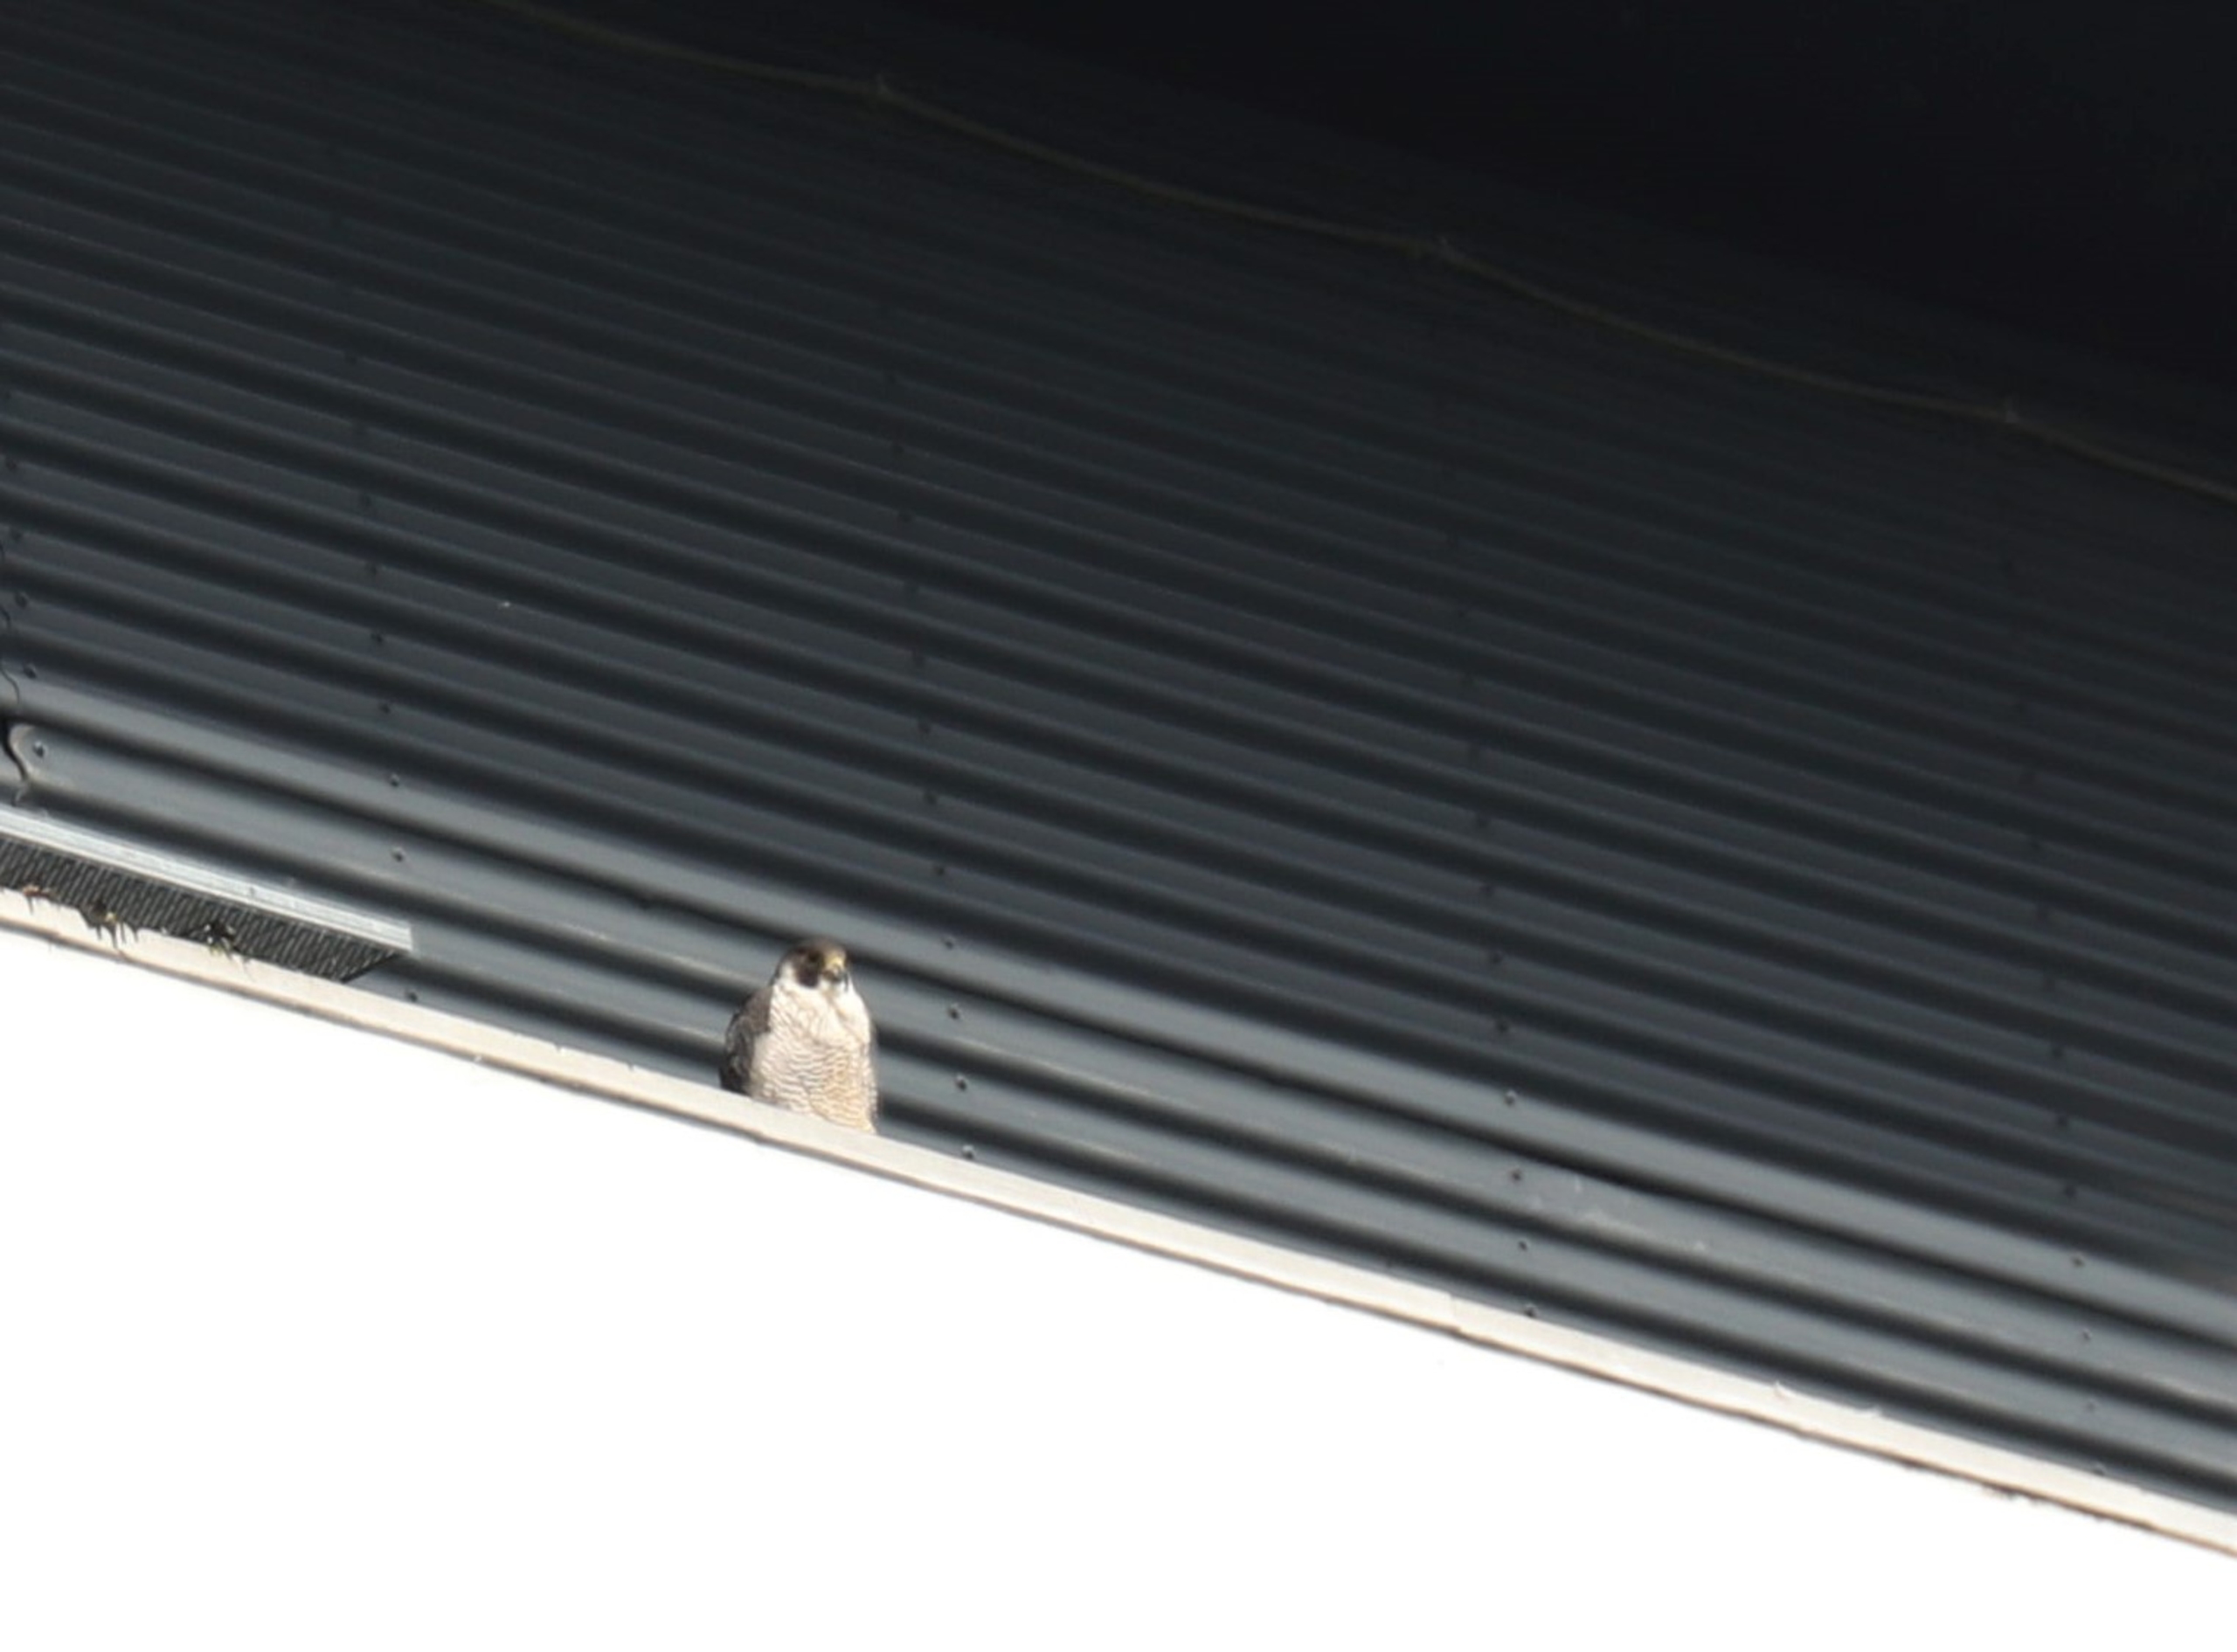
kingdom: Animalia
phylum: Chordata
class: Aves
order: Falconiformes
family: Falconidae
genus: Falco
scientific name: Falco peregrinus
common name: Vandrefalk
